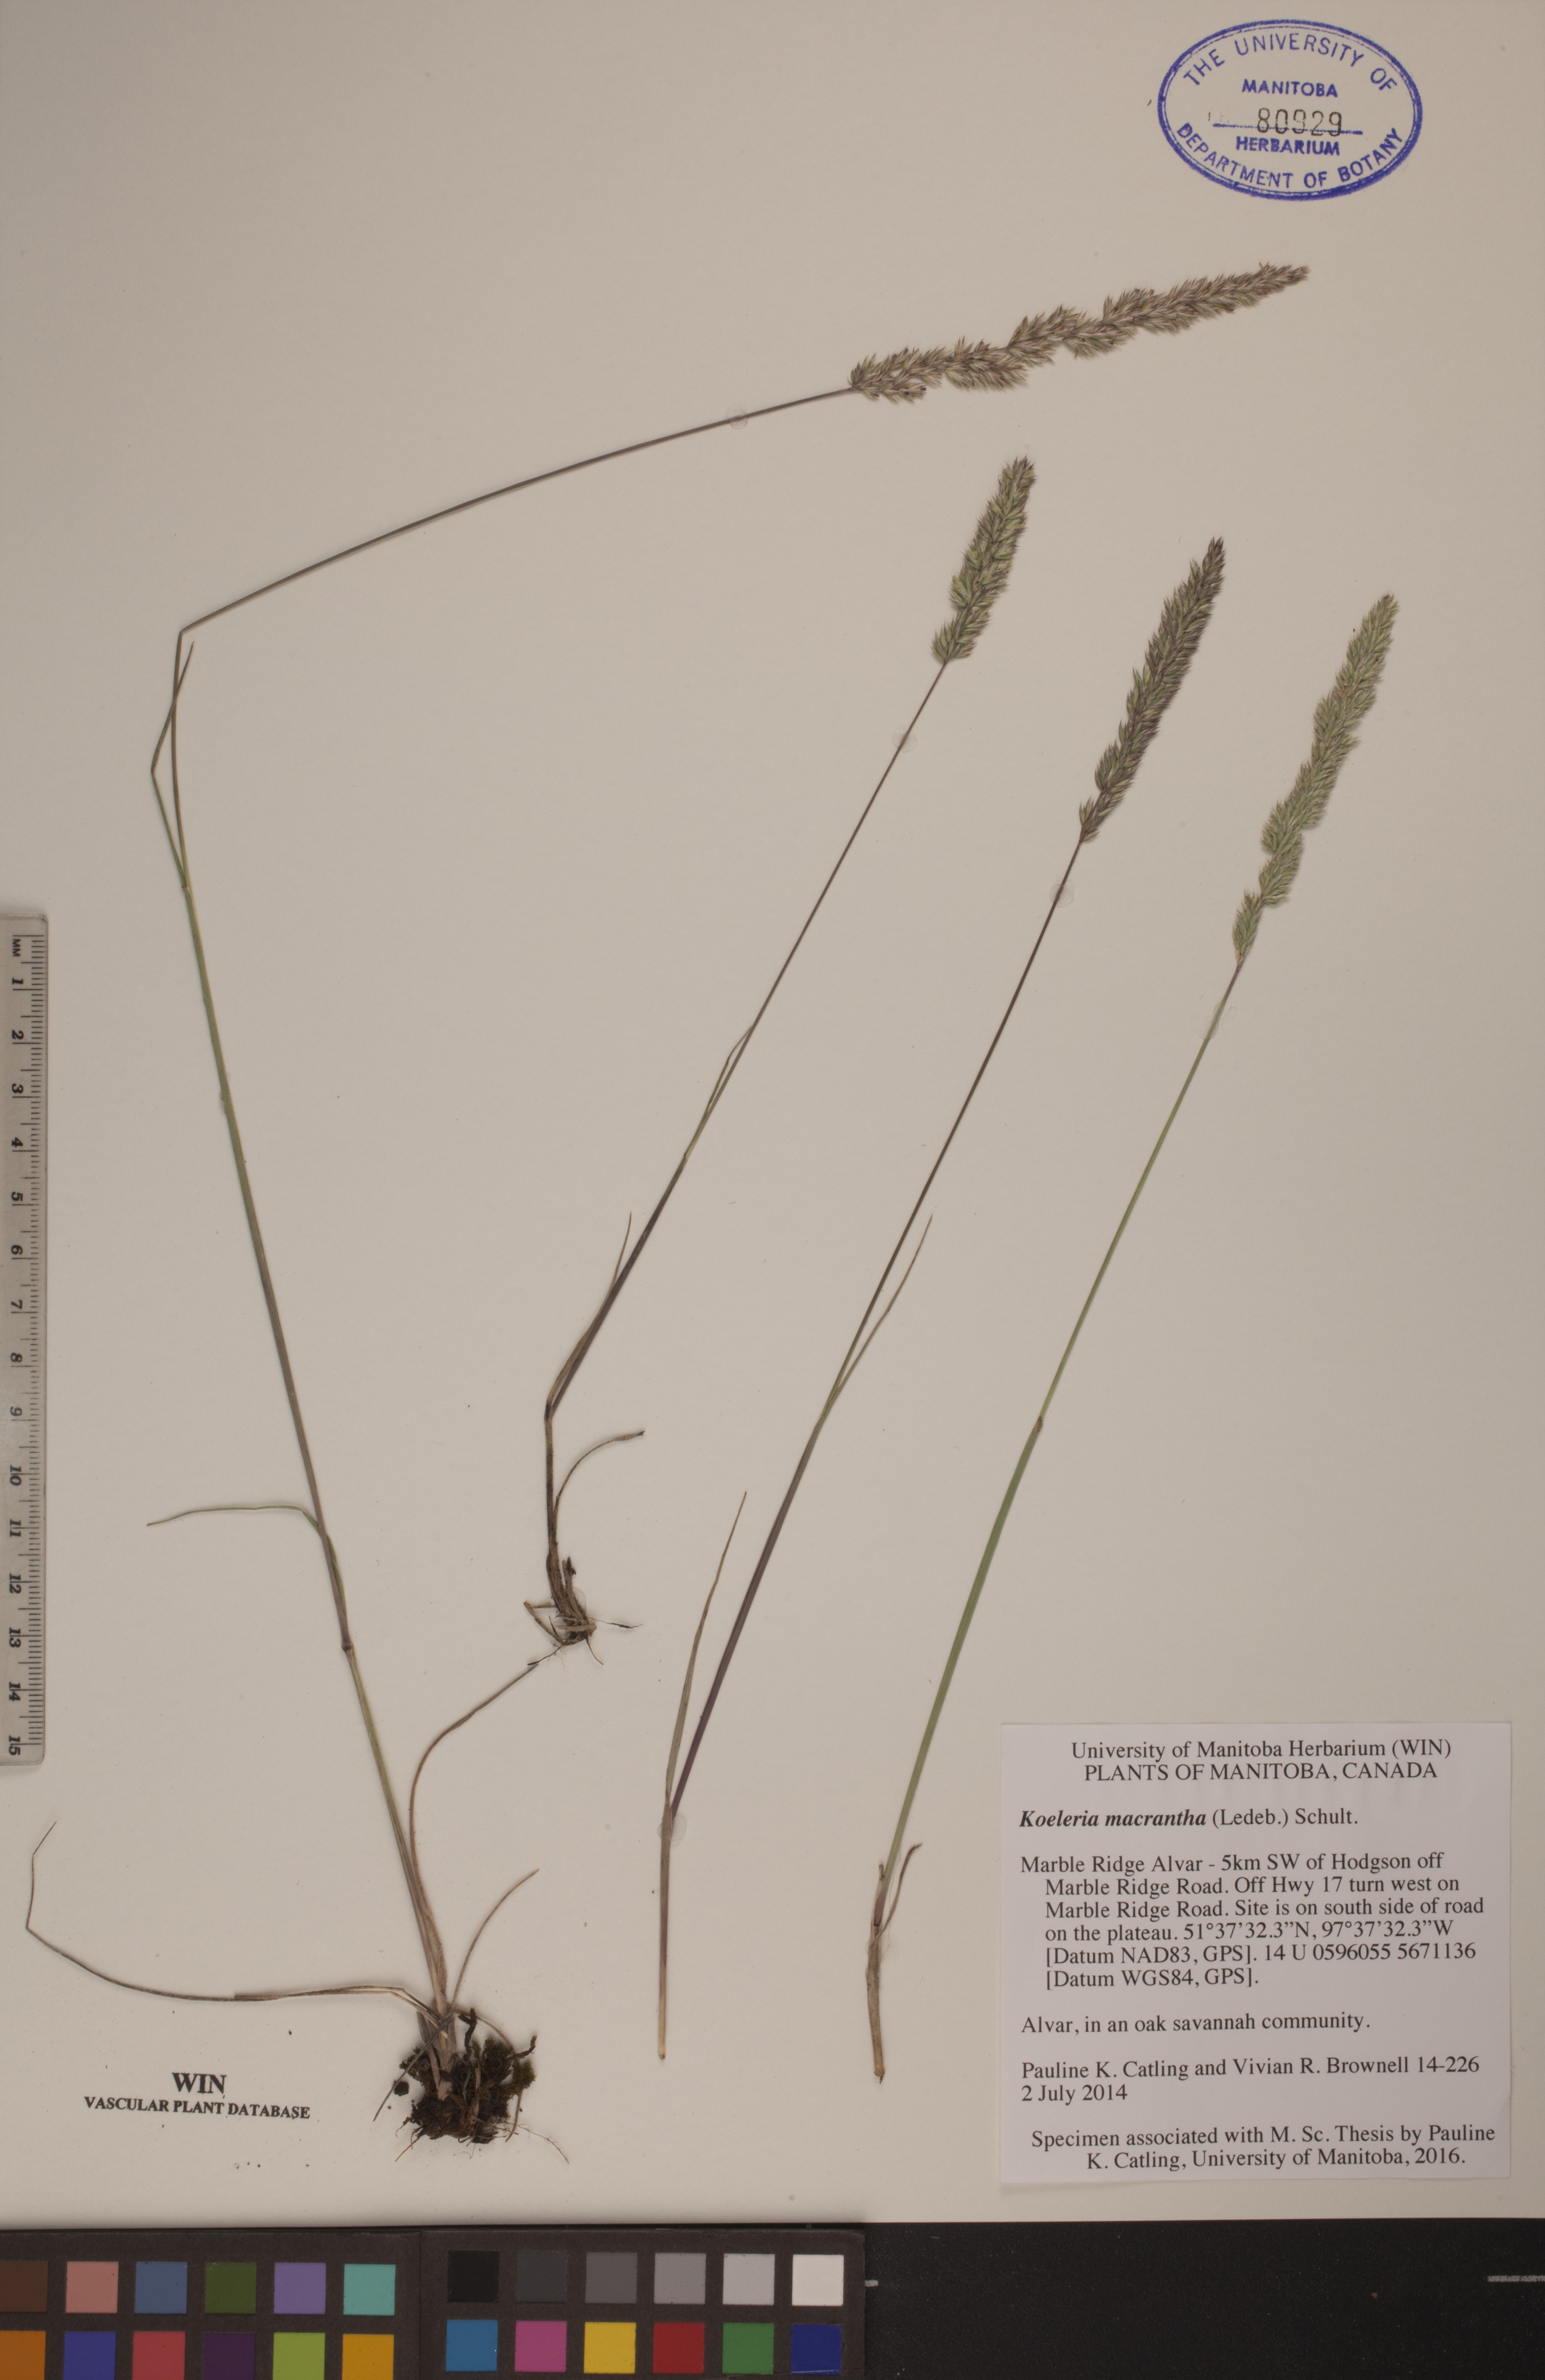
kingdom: Plantae
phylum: Tracheophyta
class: Liliopsida
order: Poales
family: Poaceae
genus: Koeleria
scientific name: Koeleria macrantha
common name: Crested hair-grass
